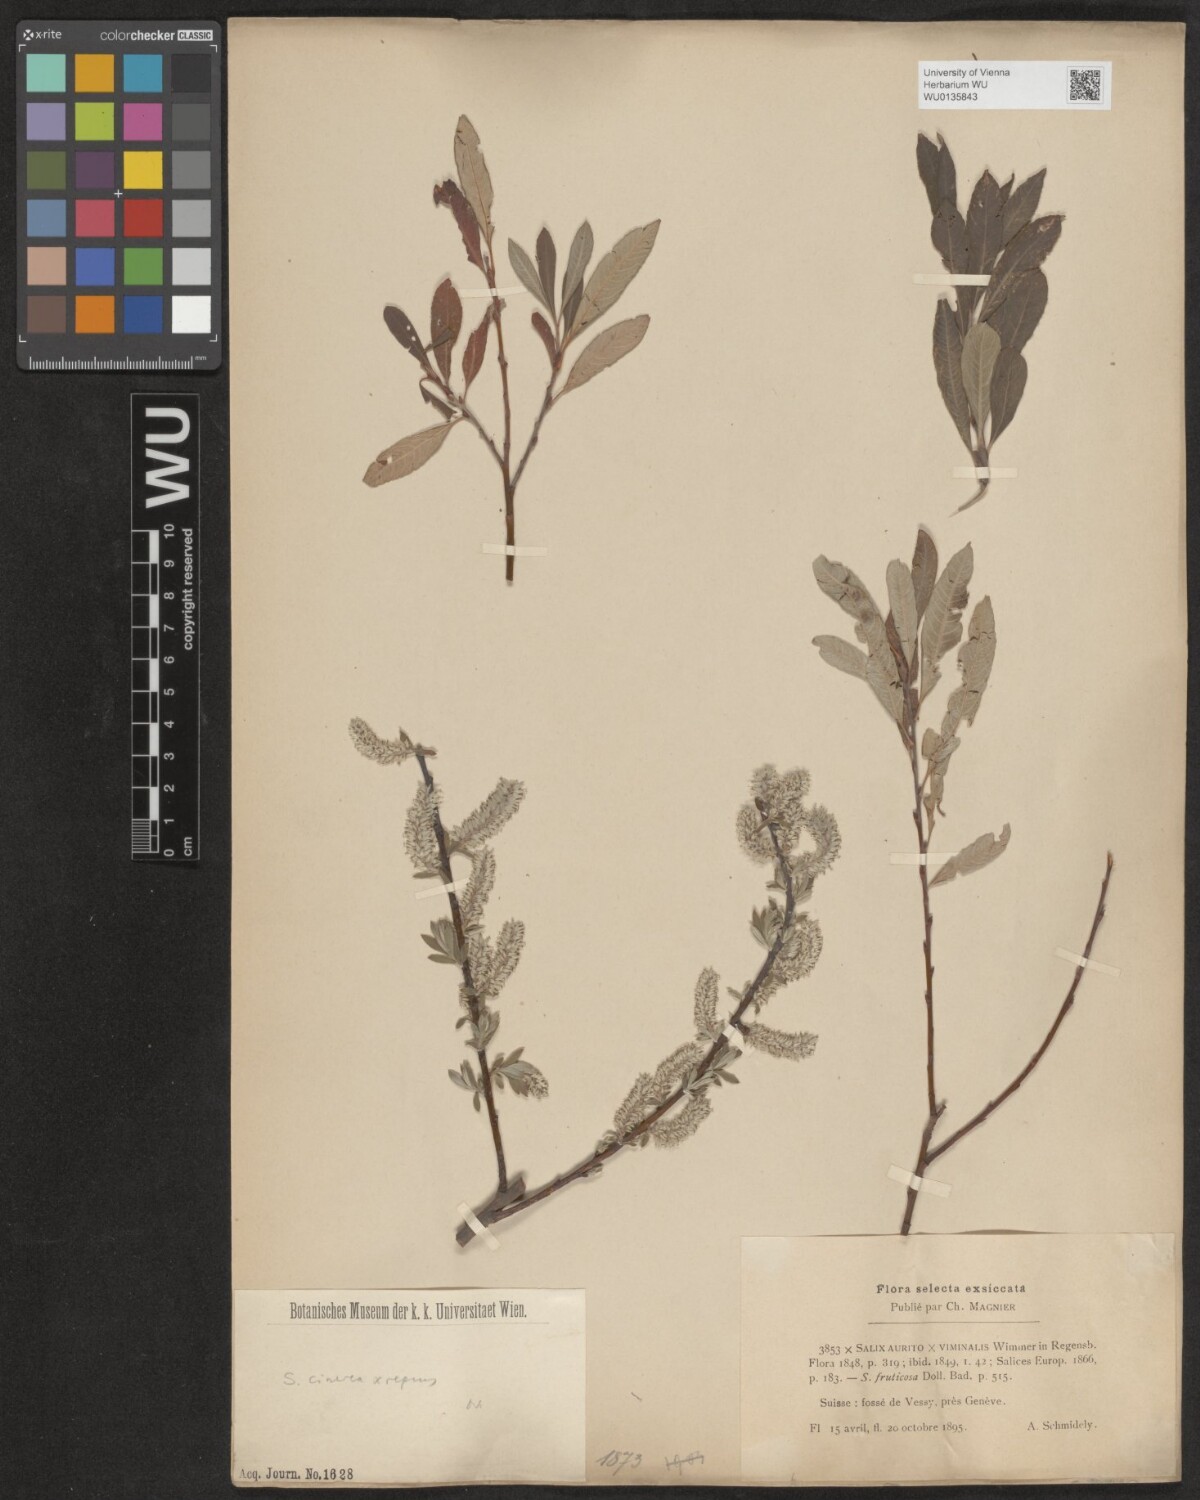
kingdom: Plantae
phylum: Tracheophyta
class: Magnoliopsida
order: Malpighiales
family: Salicaceae
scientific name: Salicaceae
